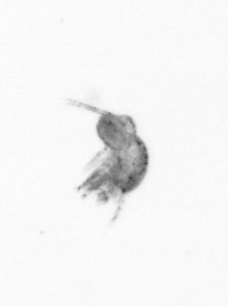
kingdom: Animalia
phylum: Arthropoda
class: Copepoda
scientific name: Copepoda
